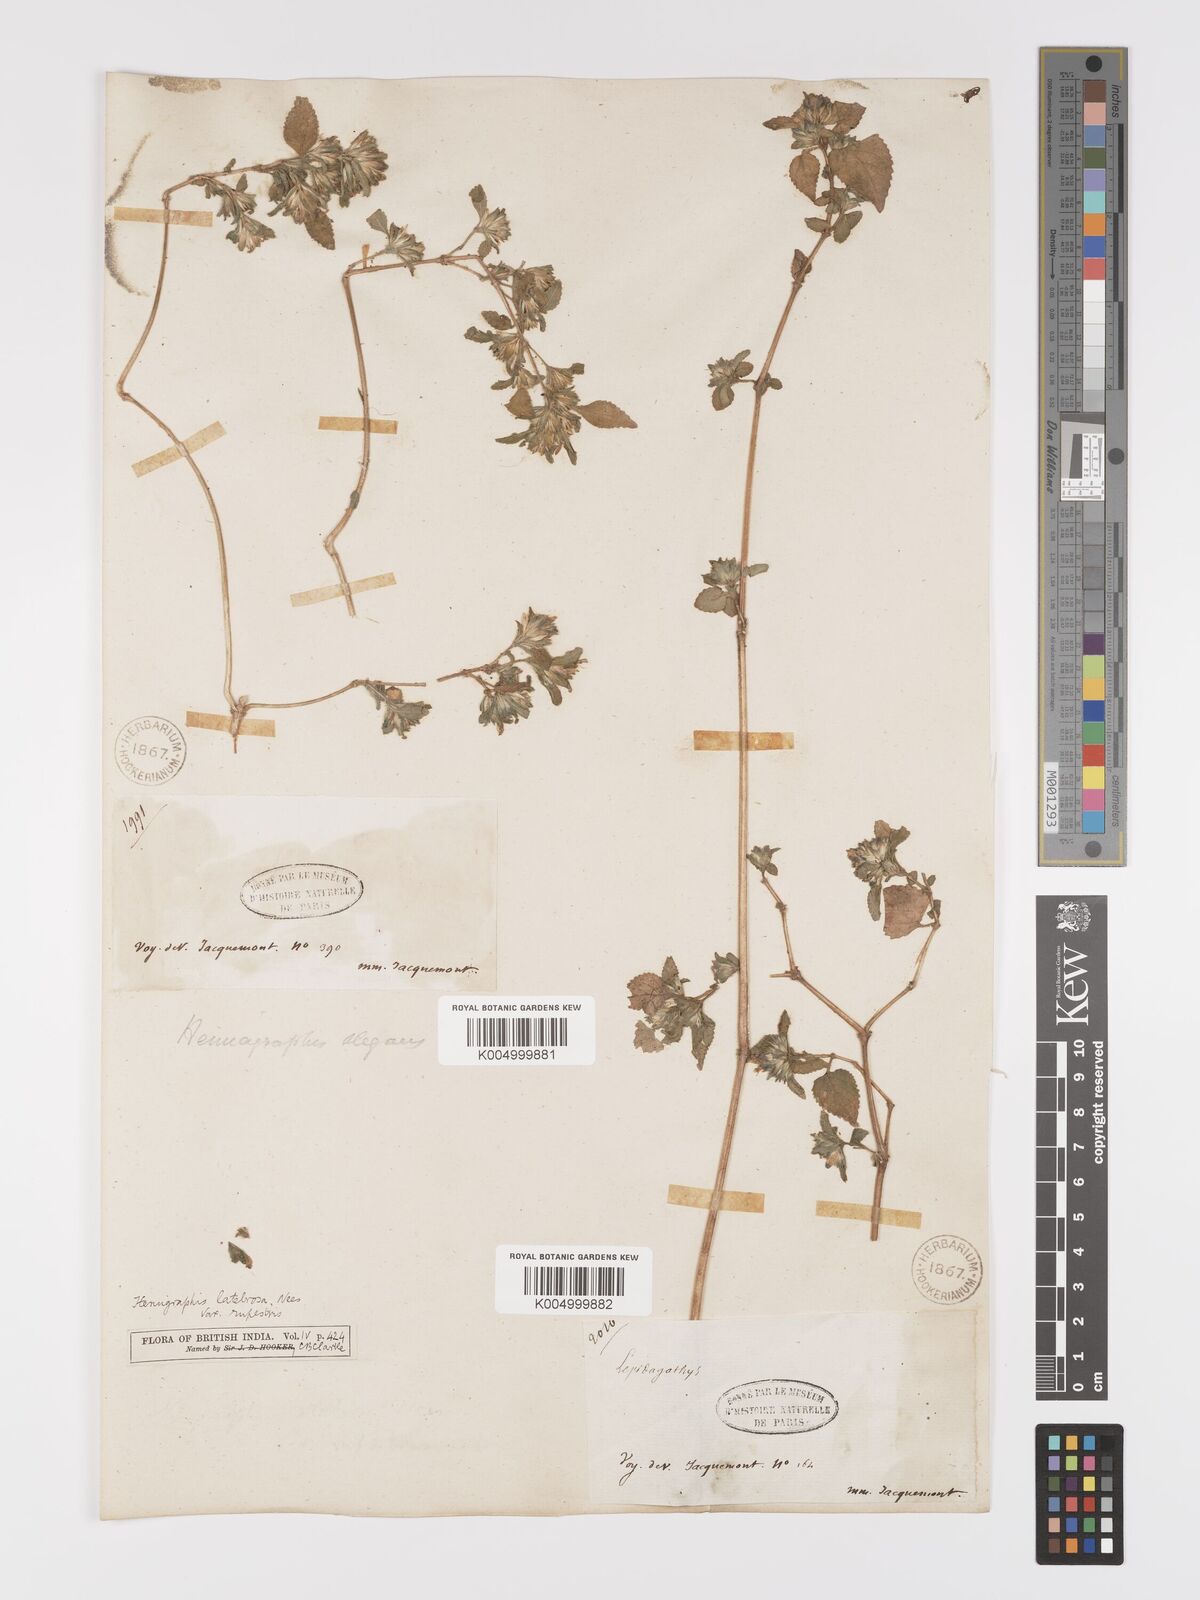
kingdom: Plantae
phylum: Tracheophyta
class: Magnoliopsida
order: Lamiales
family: Acanthaceae
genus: Strobilanthes
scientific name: Strobilanthes pavala
